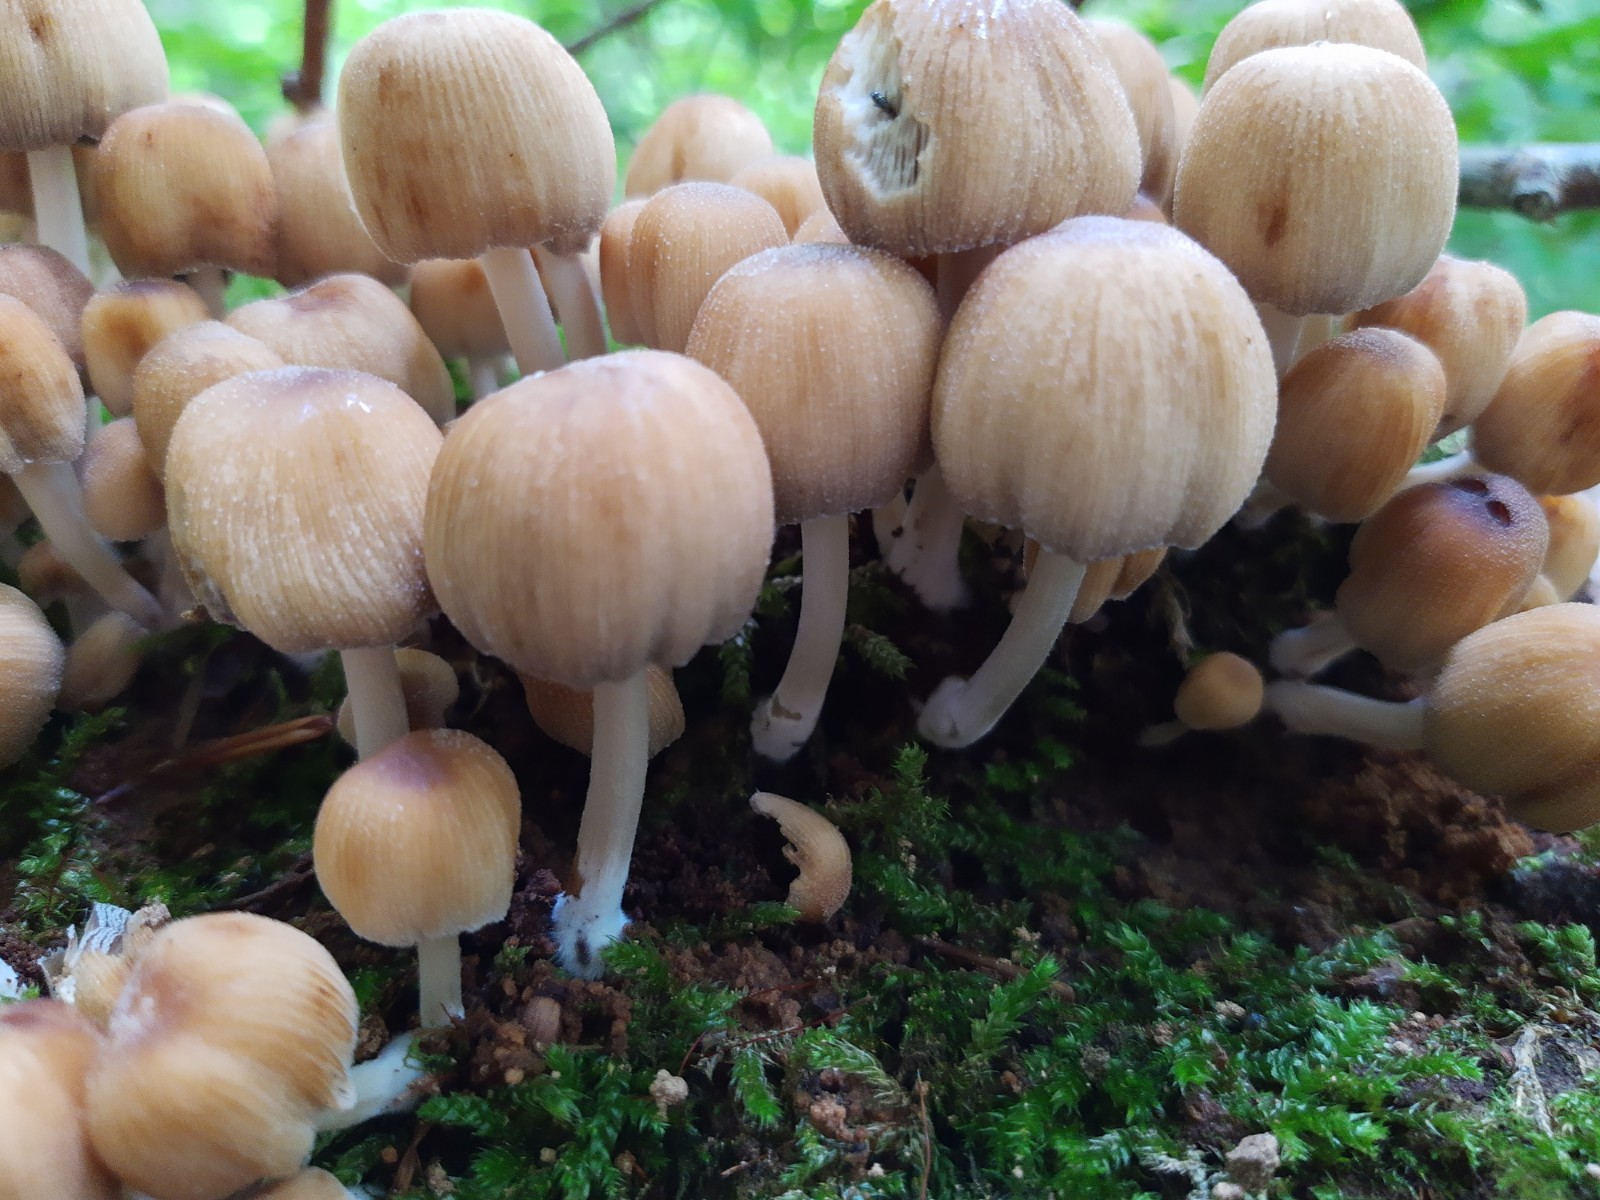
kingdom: Fungi
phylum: Basidiomycota
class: Agaricomycetes
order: Agaricales
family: Psathyrellaceae
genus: Coprinellus
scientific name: Coprinellus disseminatus
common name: bredsået blækhat
